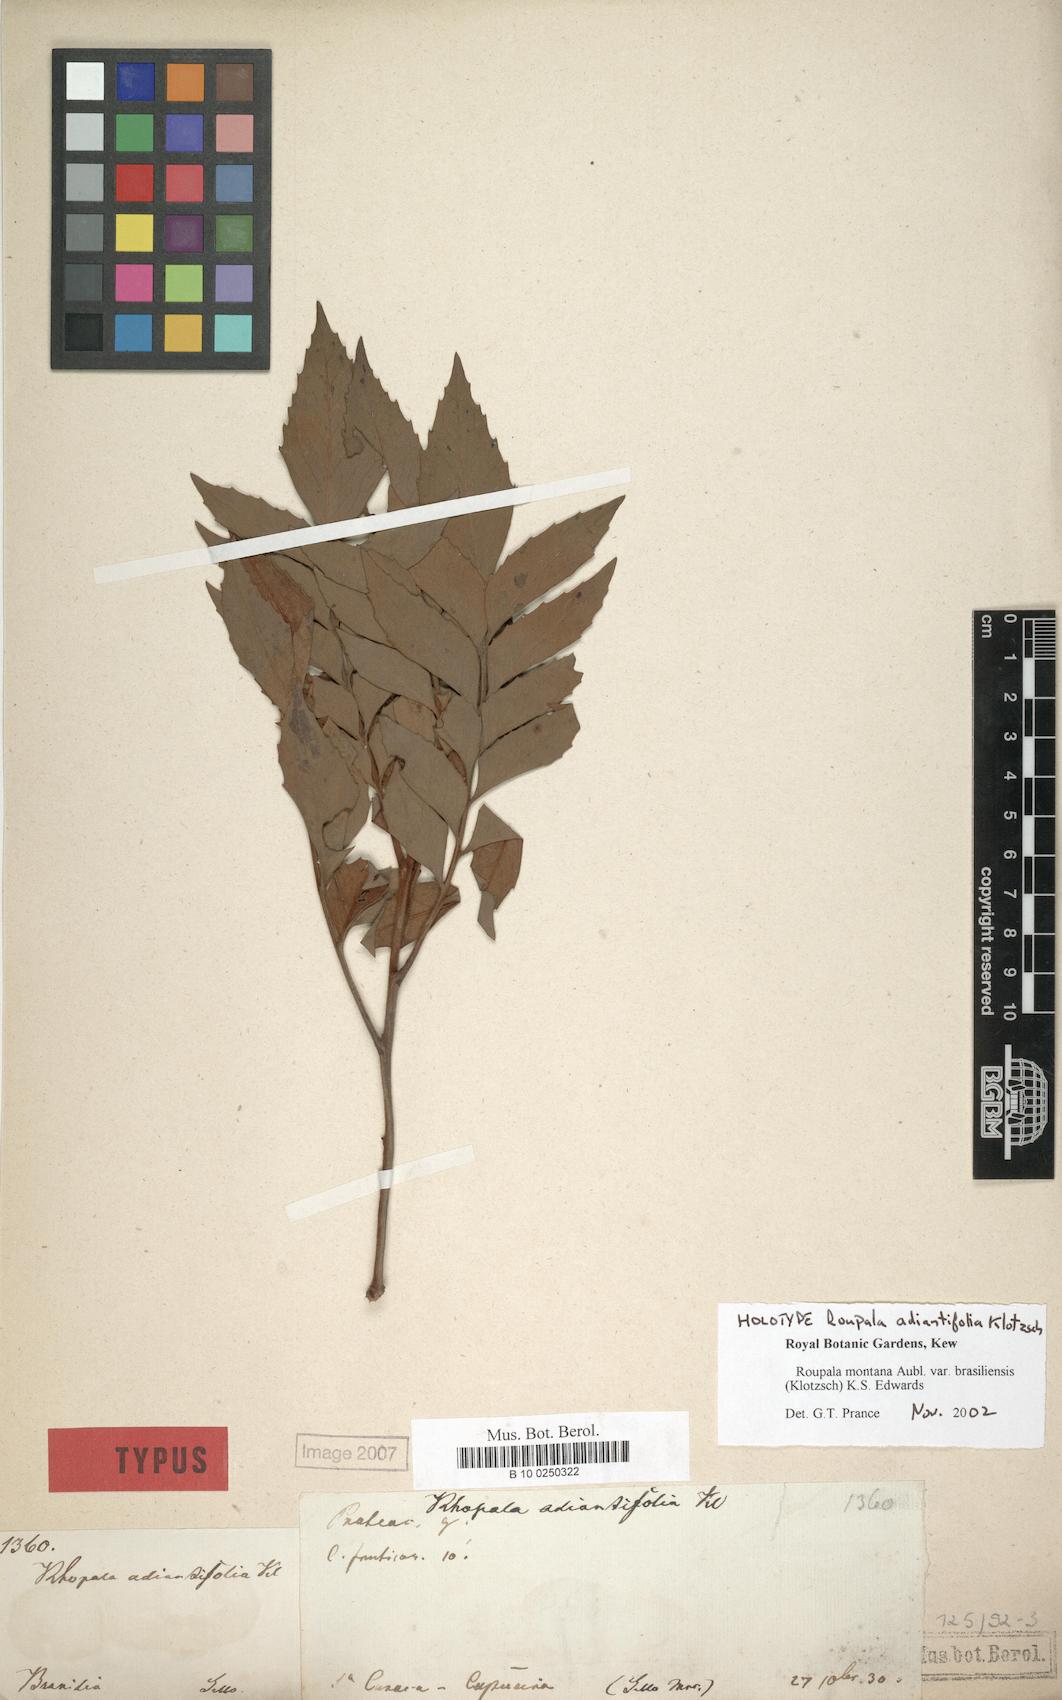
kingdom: Plantae
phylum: Tracheophyta
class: Magnoliopsida
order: Proteales
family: Proteaceae
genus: Roupala
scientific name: Roupala montana
